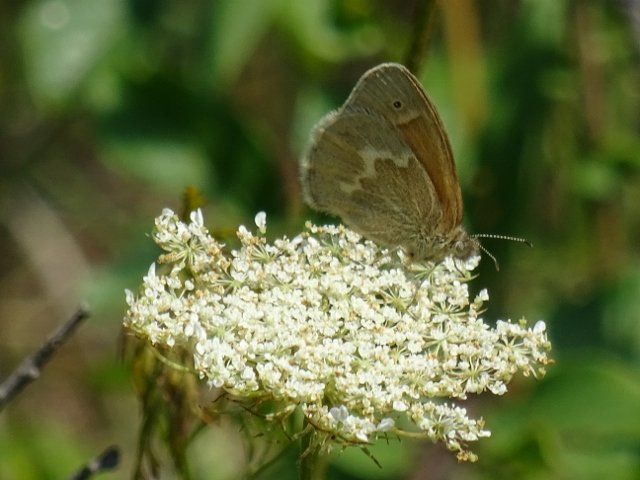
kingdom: Animalia
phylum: Arthropoda
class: Insecta
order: Lepidoptera
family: Nymphalidae
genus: Coenonympha
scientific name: Coenonympha tullia
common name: Large Heath
